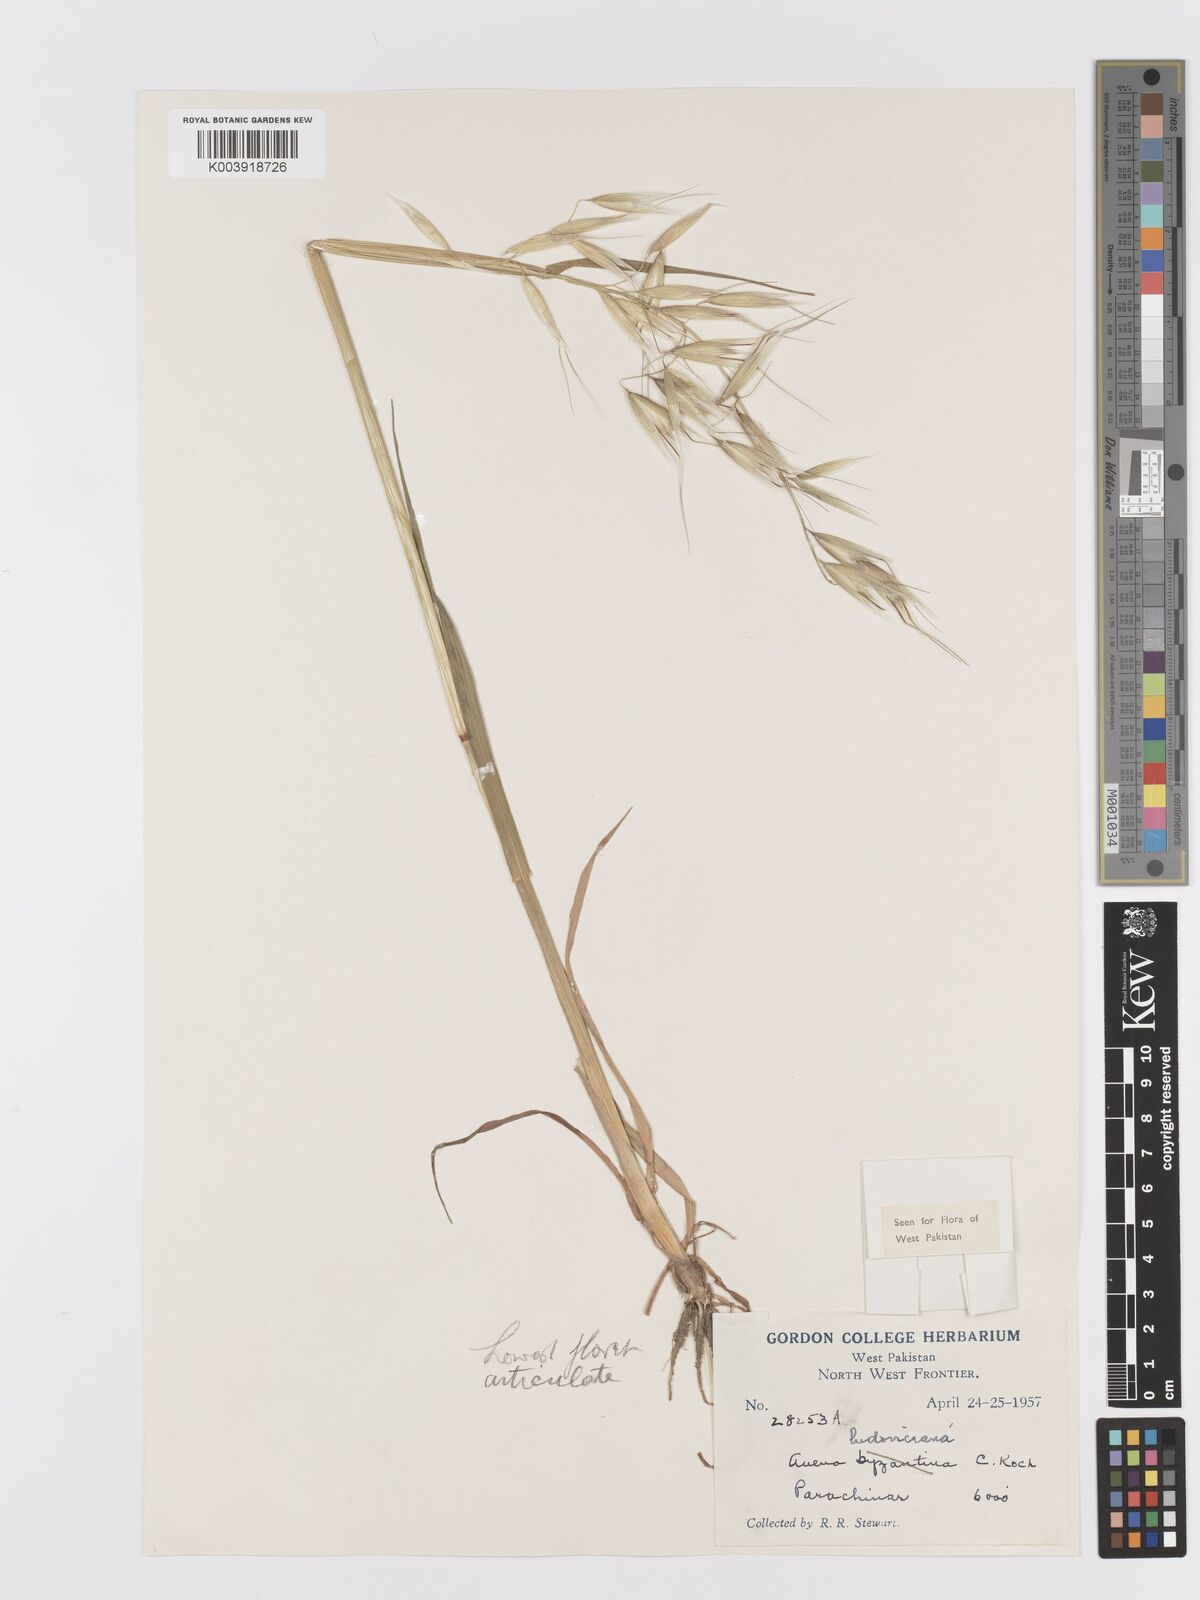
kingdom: Plantae
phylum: Tracheophyta
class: Liliopsida
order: Poales
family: Poaceae
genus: Avena
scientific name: Avena sterilis
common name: Animated oat
